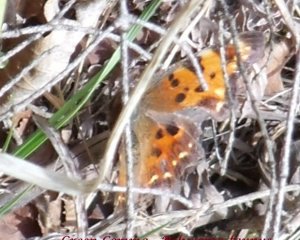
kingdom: Animalia
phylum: Arthropoda
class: Insecta
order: Lepidoptera
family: Nymphalidae
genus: Polygonia
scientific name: Polygonia faunus
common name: Green Comma
